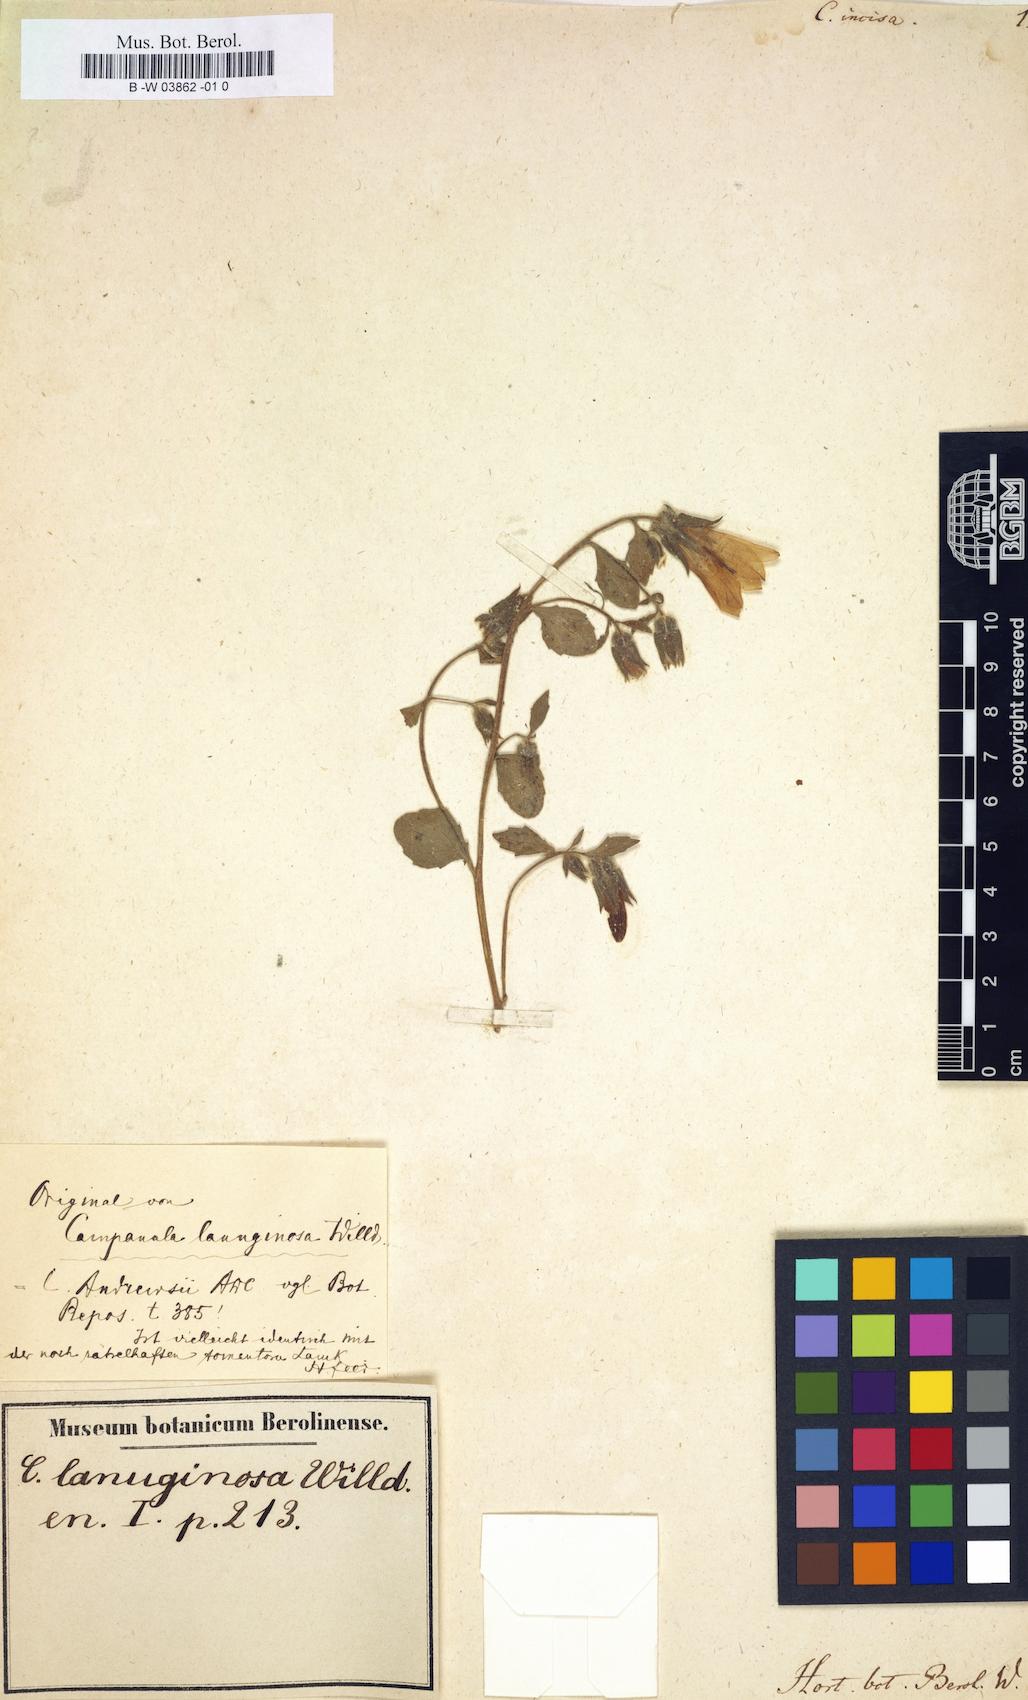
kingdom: Plantae
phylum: Tracheophyta
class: Magnoliopsida
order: Asterales
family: Campanulaceae
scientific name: Campanulaceae
